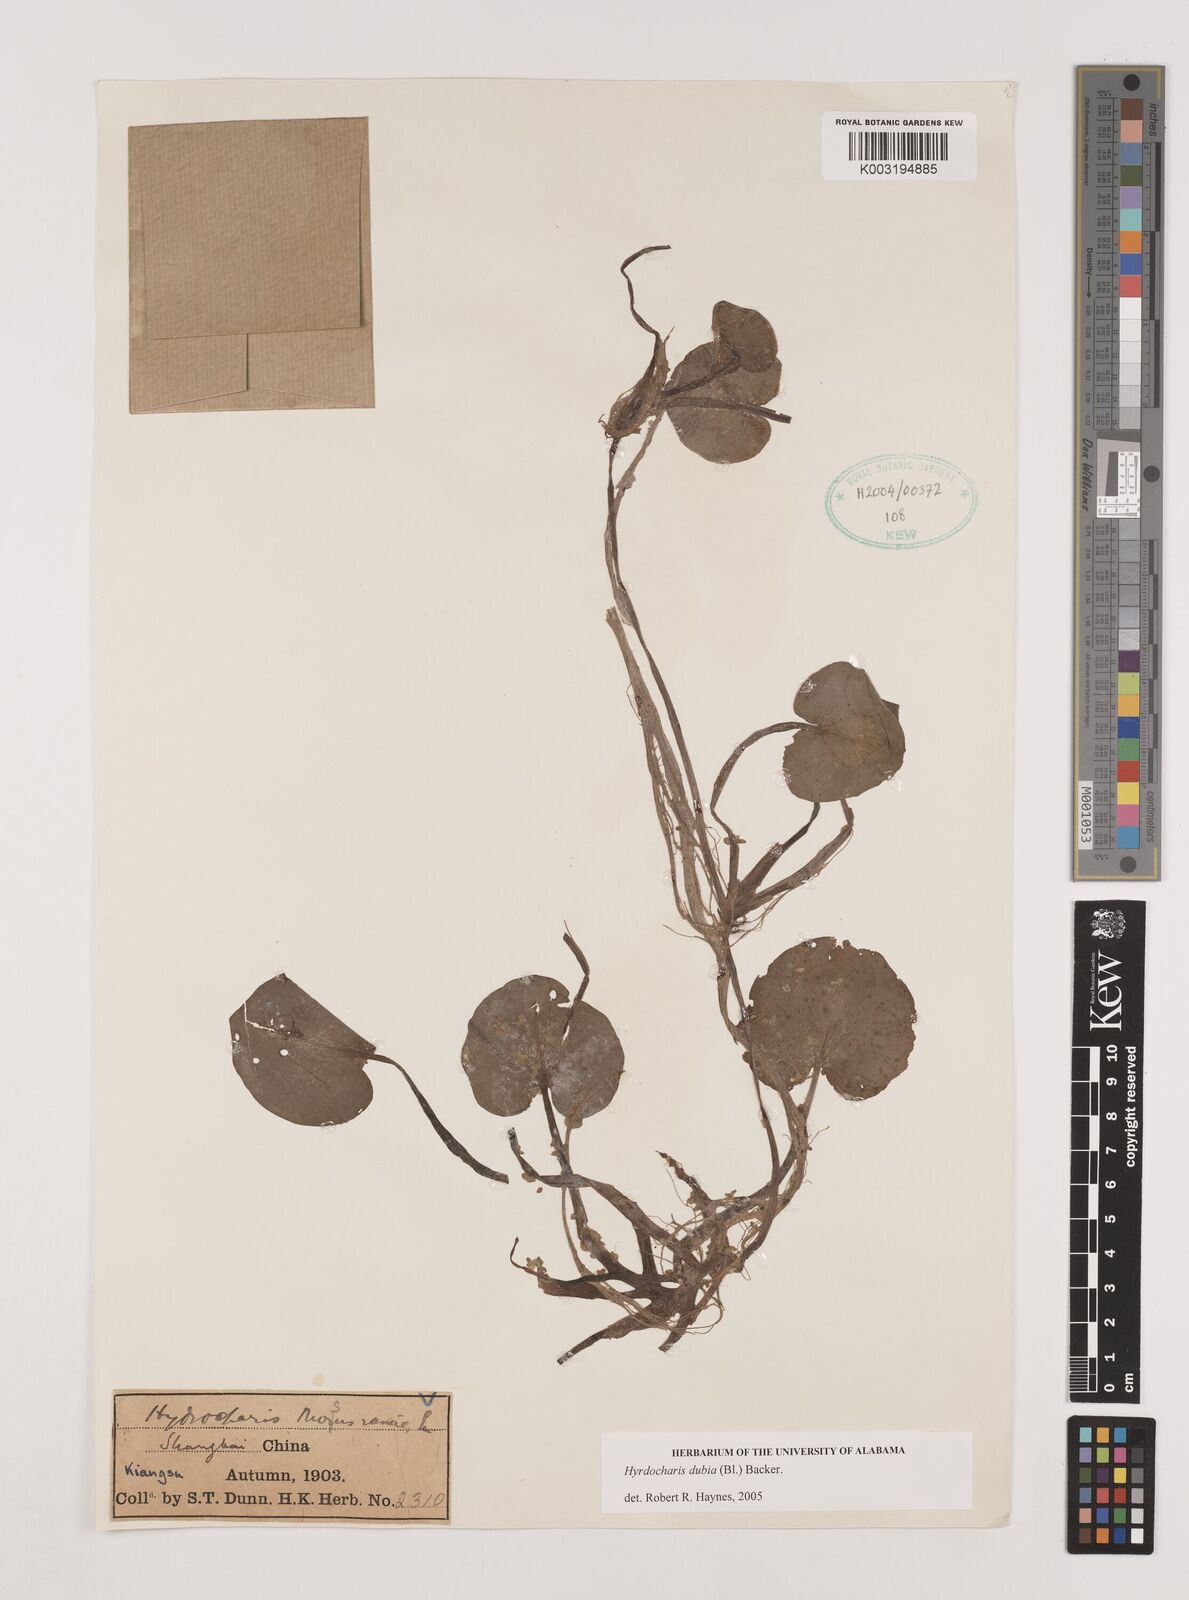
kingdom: Plantae
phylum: Tracheophyta
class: Liliopsida
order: Alismatales
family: Hydrocharitaceae
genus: Hydrocharis
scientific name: Hydrocharis dubia
